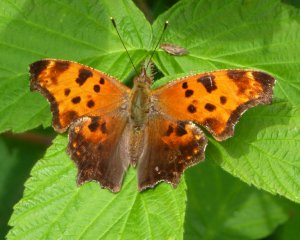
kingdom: Animalia
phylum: Arthropoda
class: Insecta
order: Lepidoptera
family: Nymphalidae
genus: Polygonia
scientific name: Polygonia comma
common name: Eastern Comma
